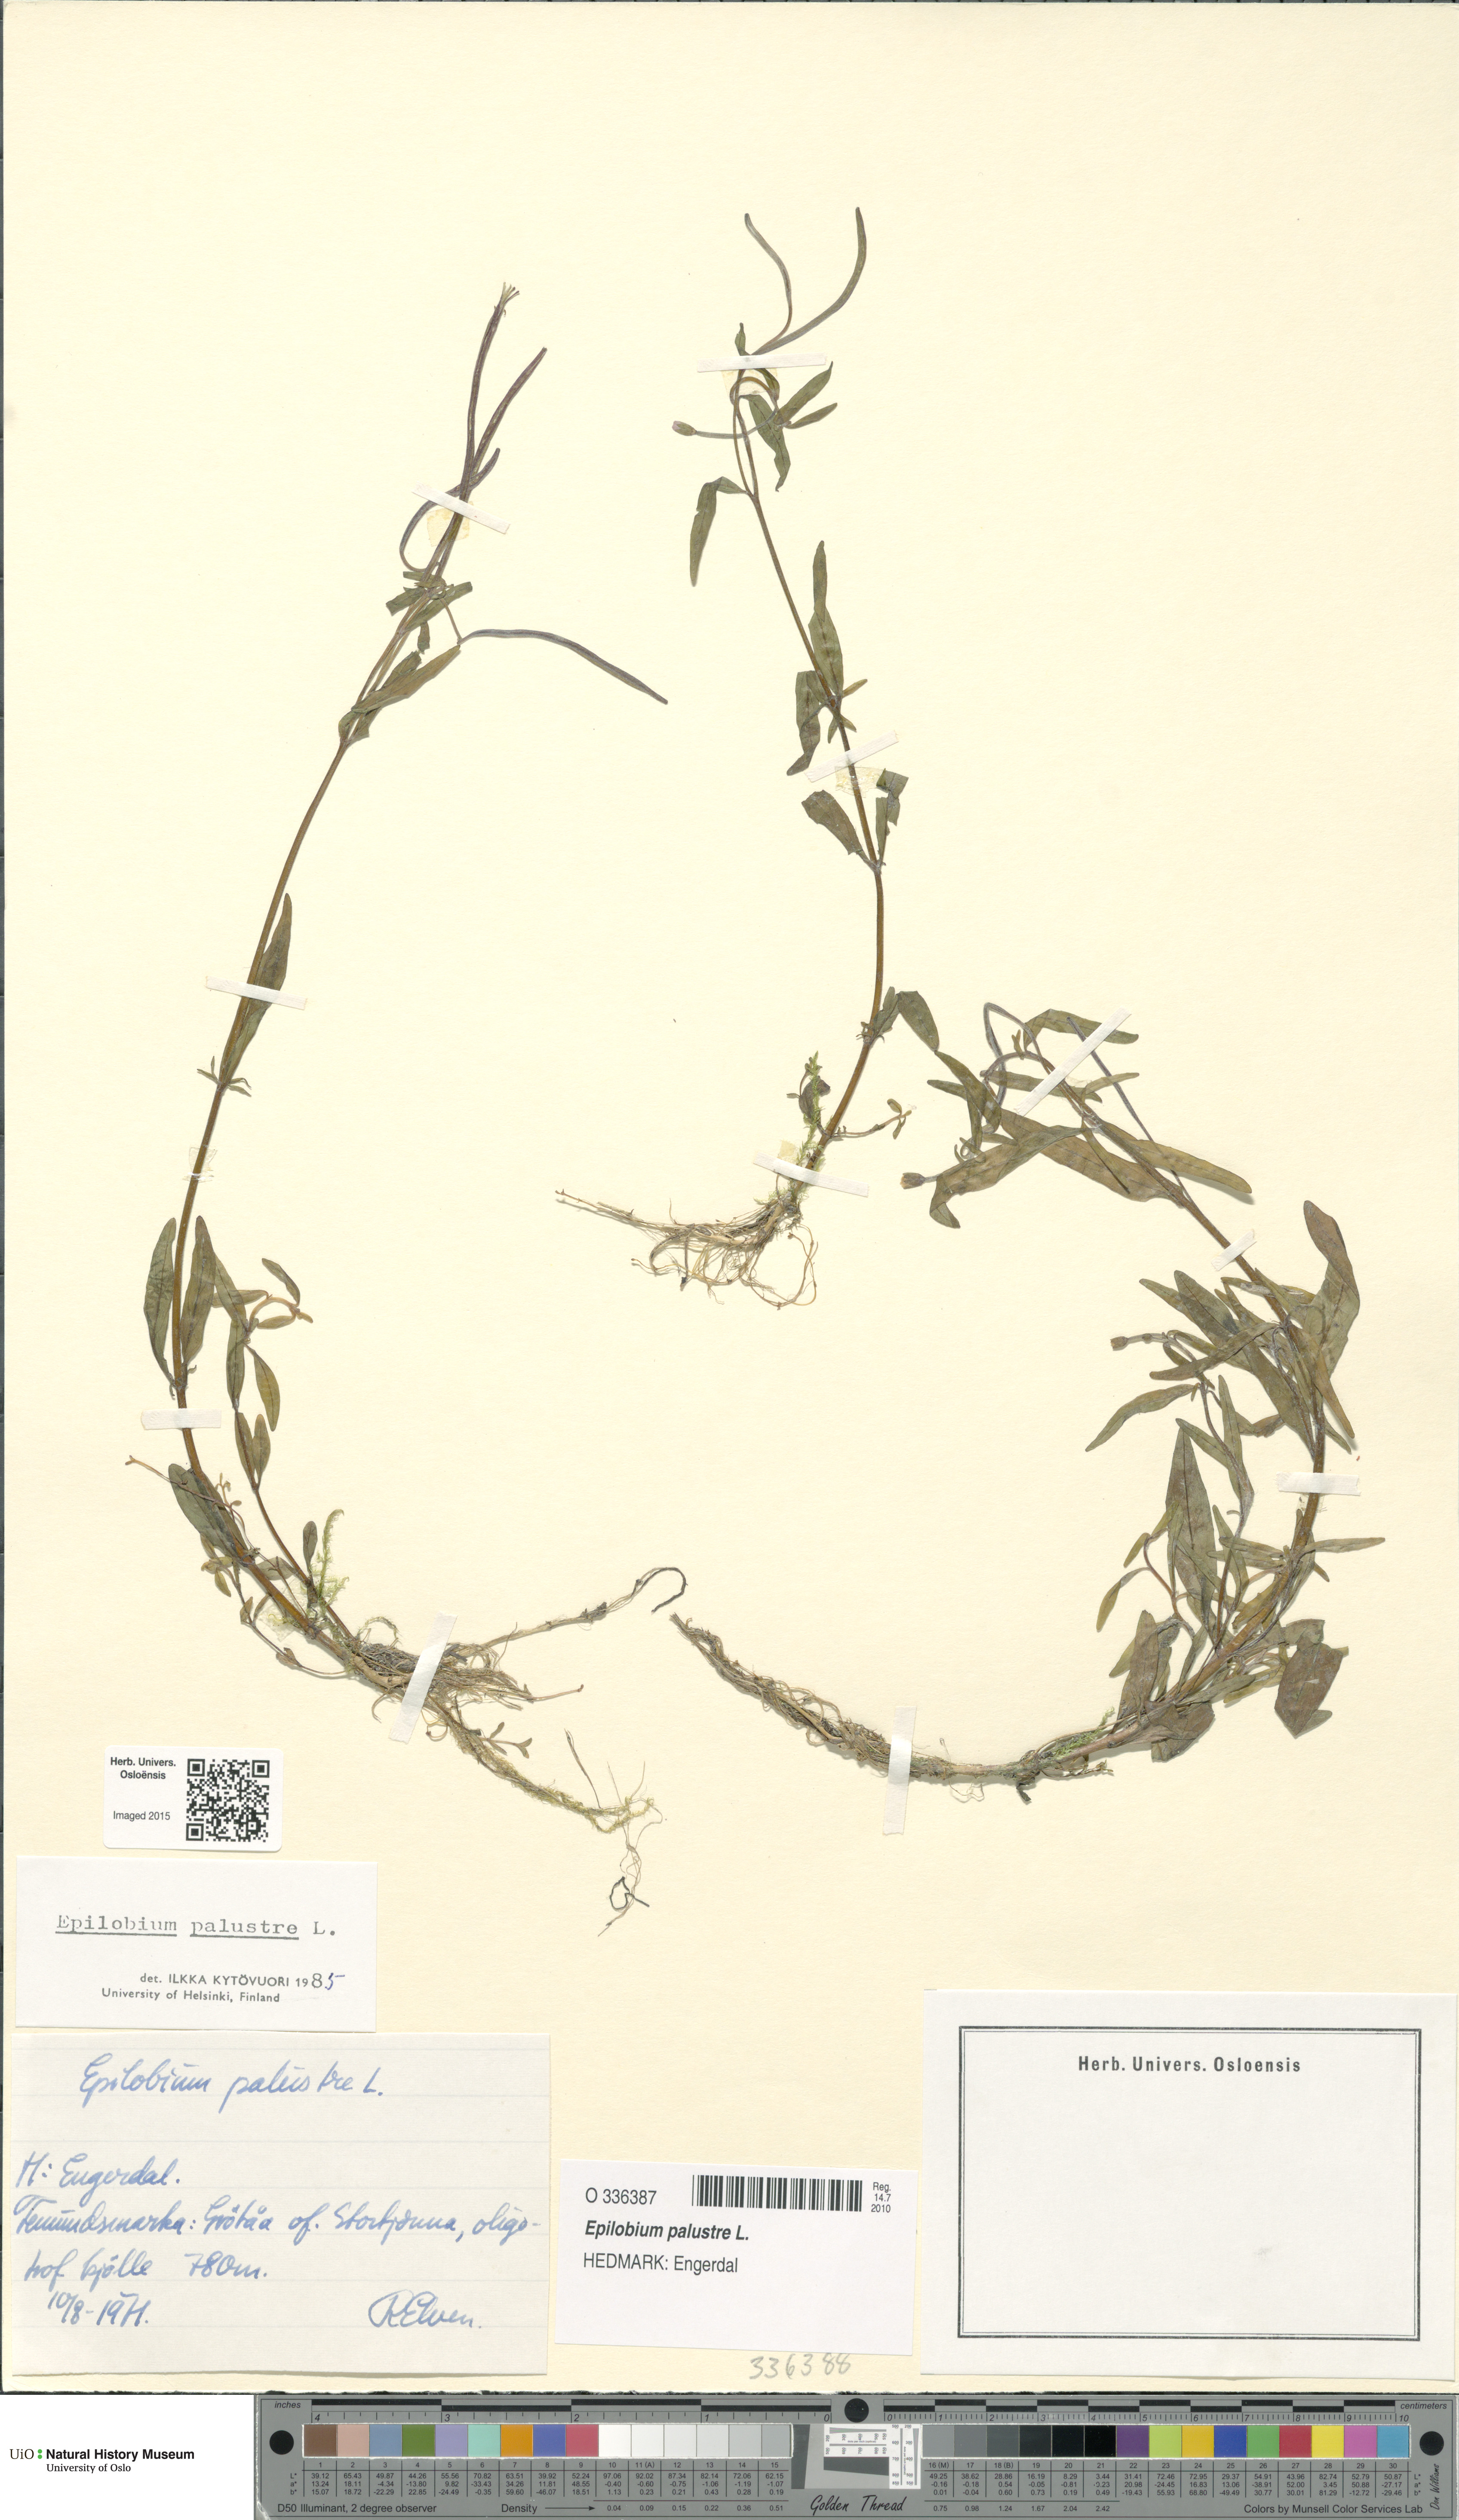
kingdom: Plantae
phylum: Tracheophyta
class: Magnoliopsida
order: Myrtales
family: Onagraceae
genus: Epilobium
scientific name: Epilobium palustre
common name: Marsh willowherb
